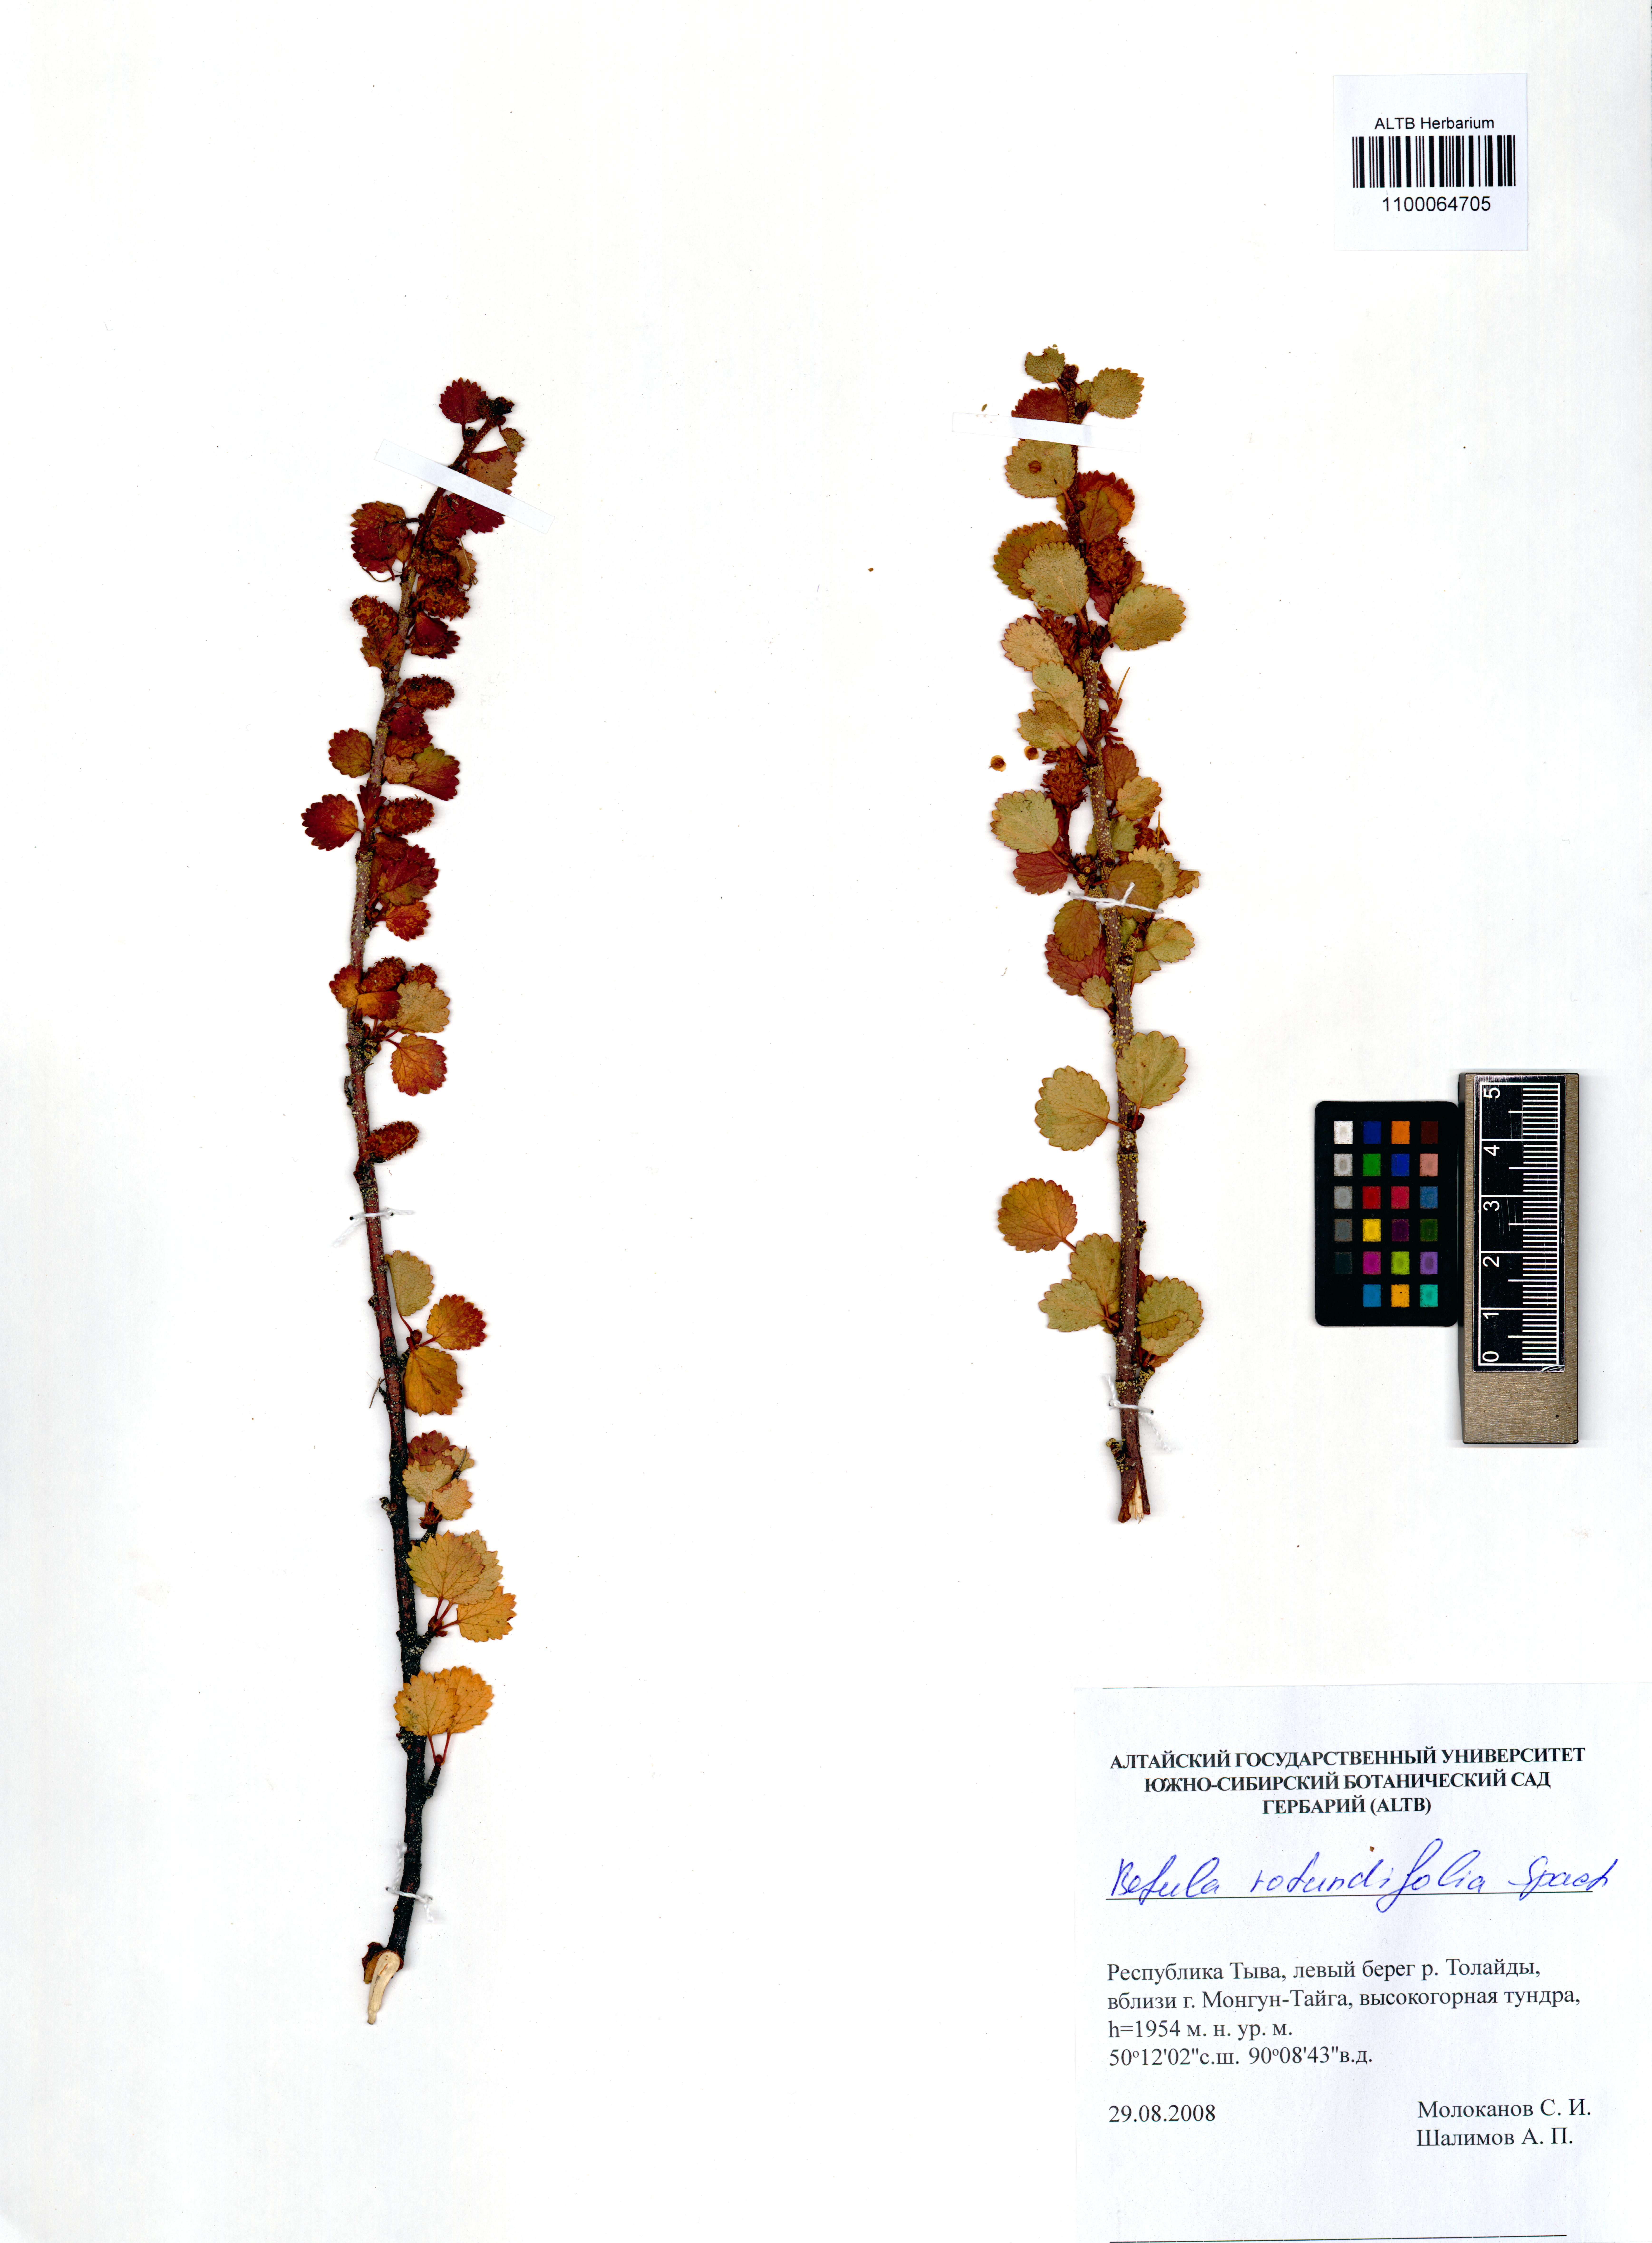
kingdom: Plantae
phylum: Tracheophyta
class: Magnoliopsida
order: Fagales
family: Betulaceae
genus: Betula
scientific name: Betula glandulosa
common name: Dwarf birch
